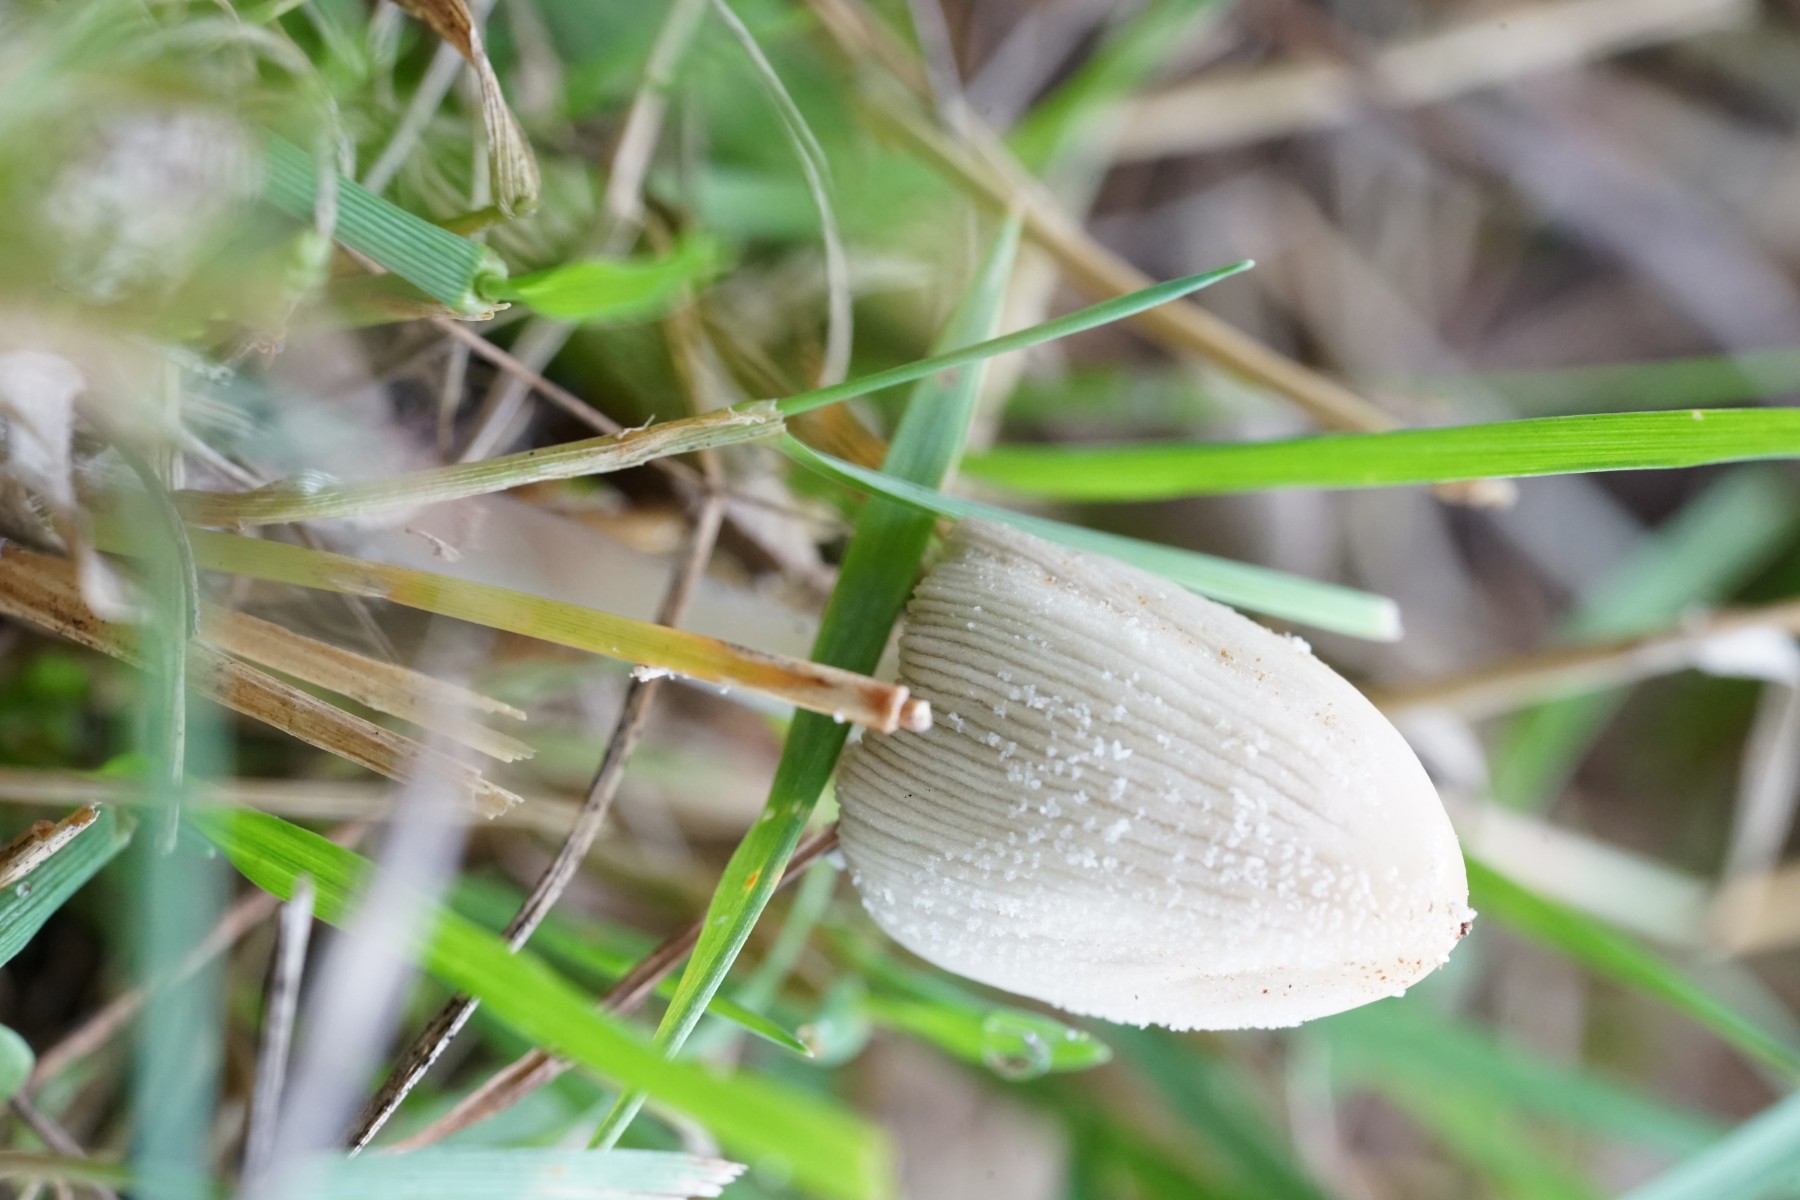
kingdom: Fungi
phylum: Basidiomycota
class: Agaricomycetes
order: Agaricales
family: Psathyrellaceae
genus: Coprinopsis
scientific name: Coprinopsis
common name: blækhat
